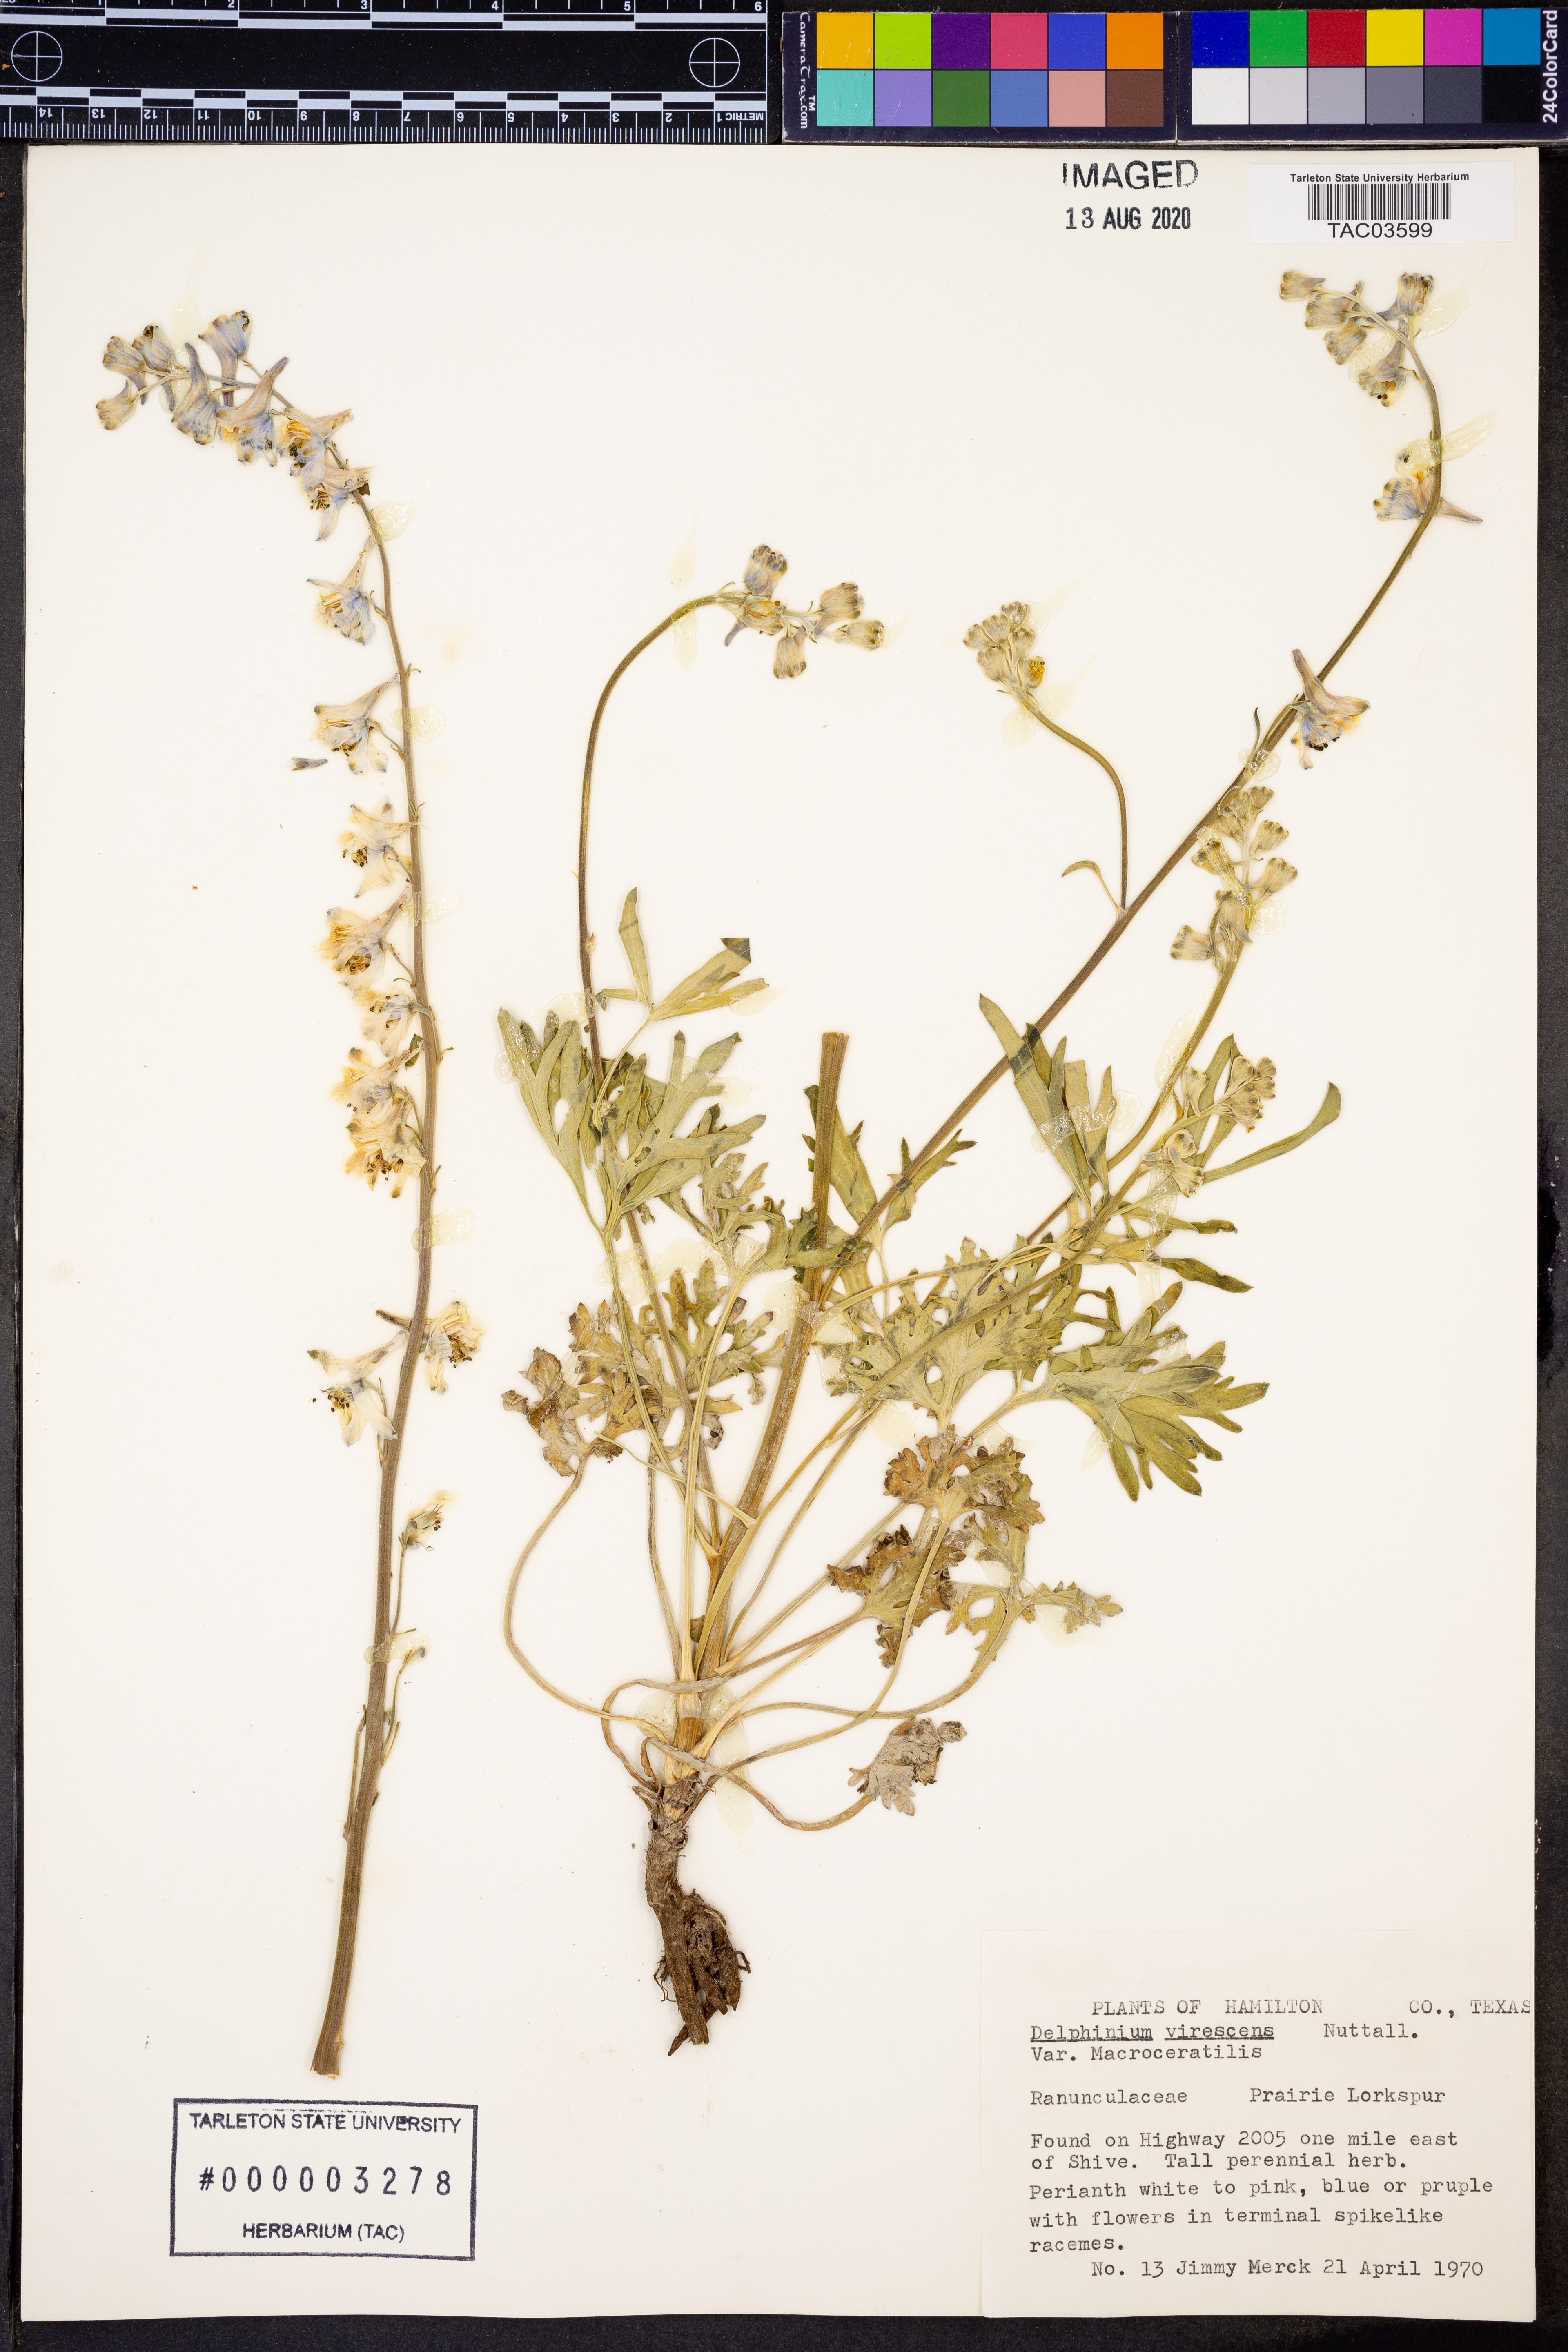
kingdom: Plantae
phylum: Tracheophyta
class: Magnoliopsida
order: Ranunculales
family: Ranunculaceae
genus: Delphinium
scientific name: Delphinium carolinianum
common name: Carolina larkspur
